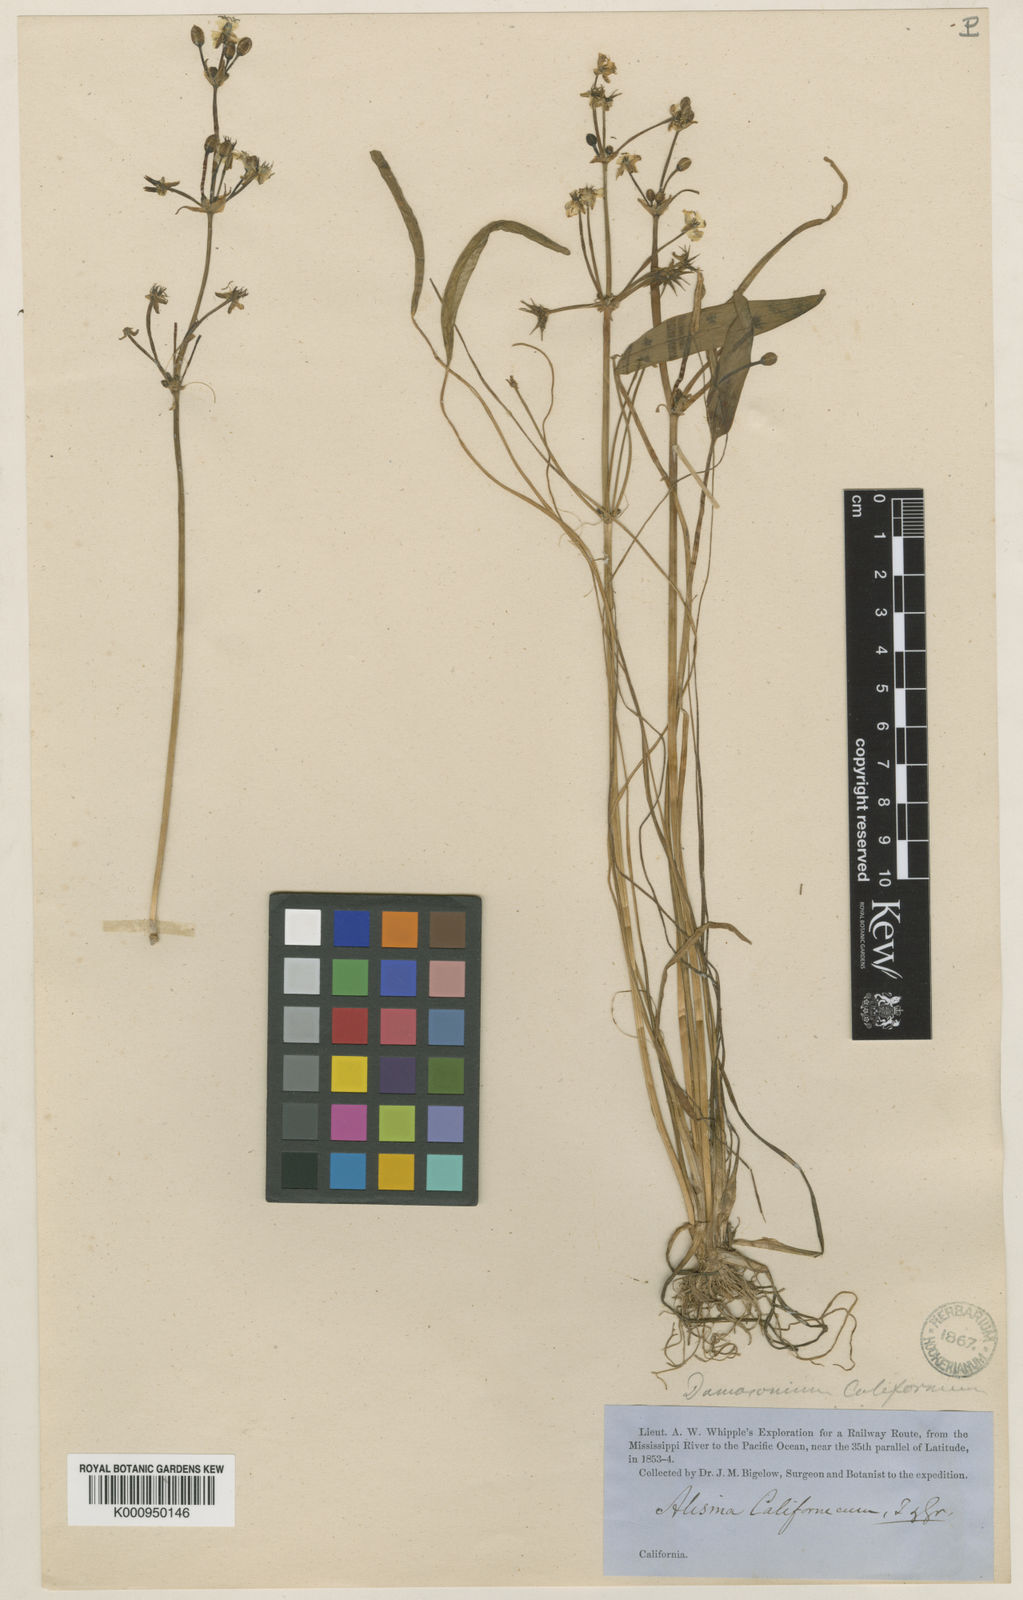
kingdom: Plantae
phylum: Tracheophyta
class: Liliopsida
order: Alismatales
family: Alismataceae
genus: Damasonium
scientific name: Damasonium californicum
